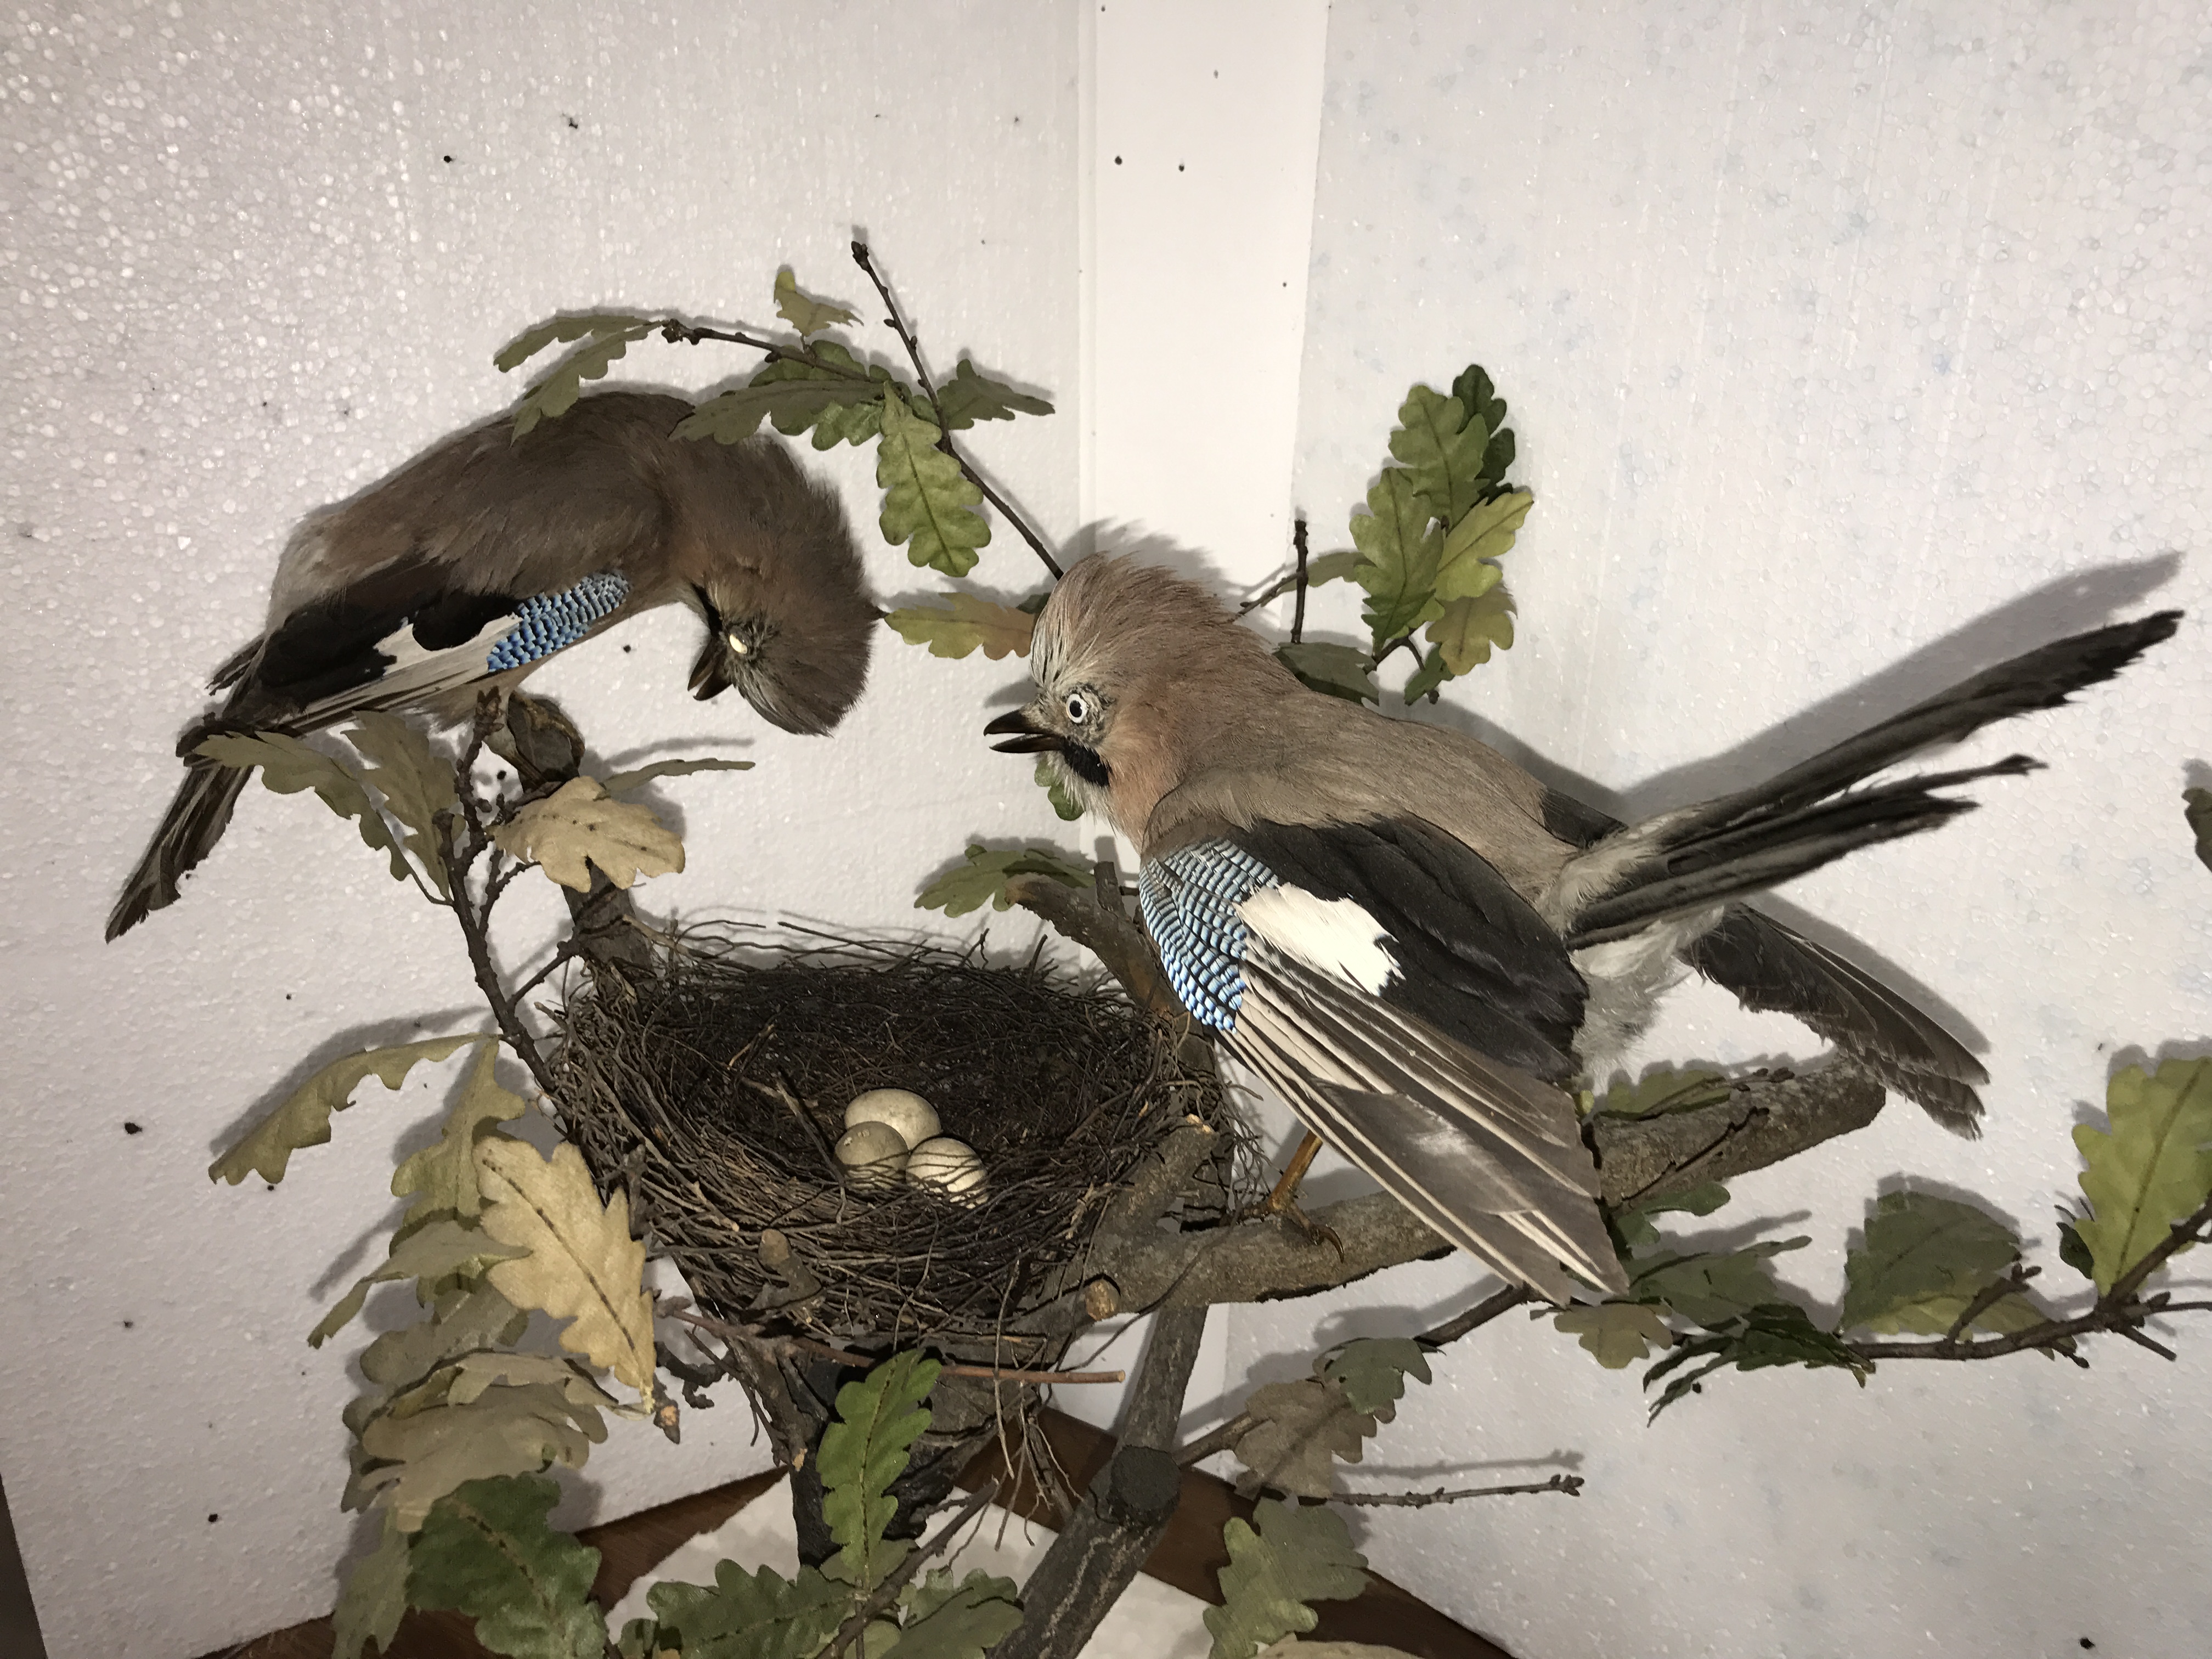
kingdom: Animalia
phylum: Chordata
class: Aves
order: Passeriformes
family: Corvidae
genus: Garrulus
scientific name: Garrulus glandarius
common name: Eurasian jay
